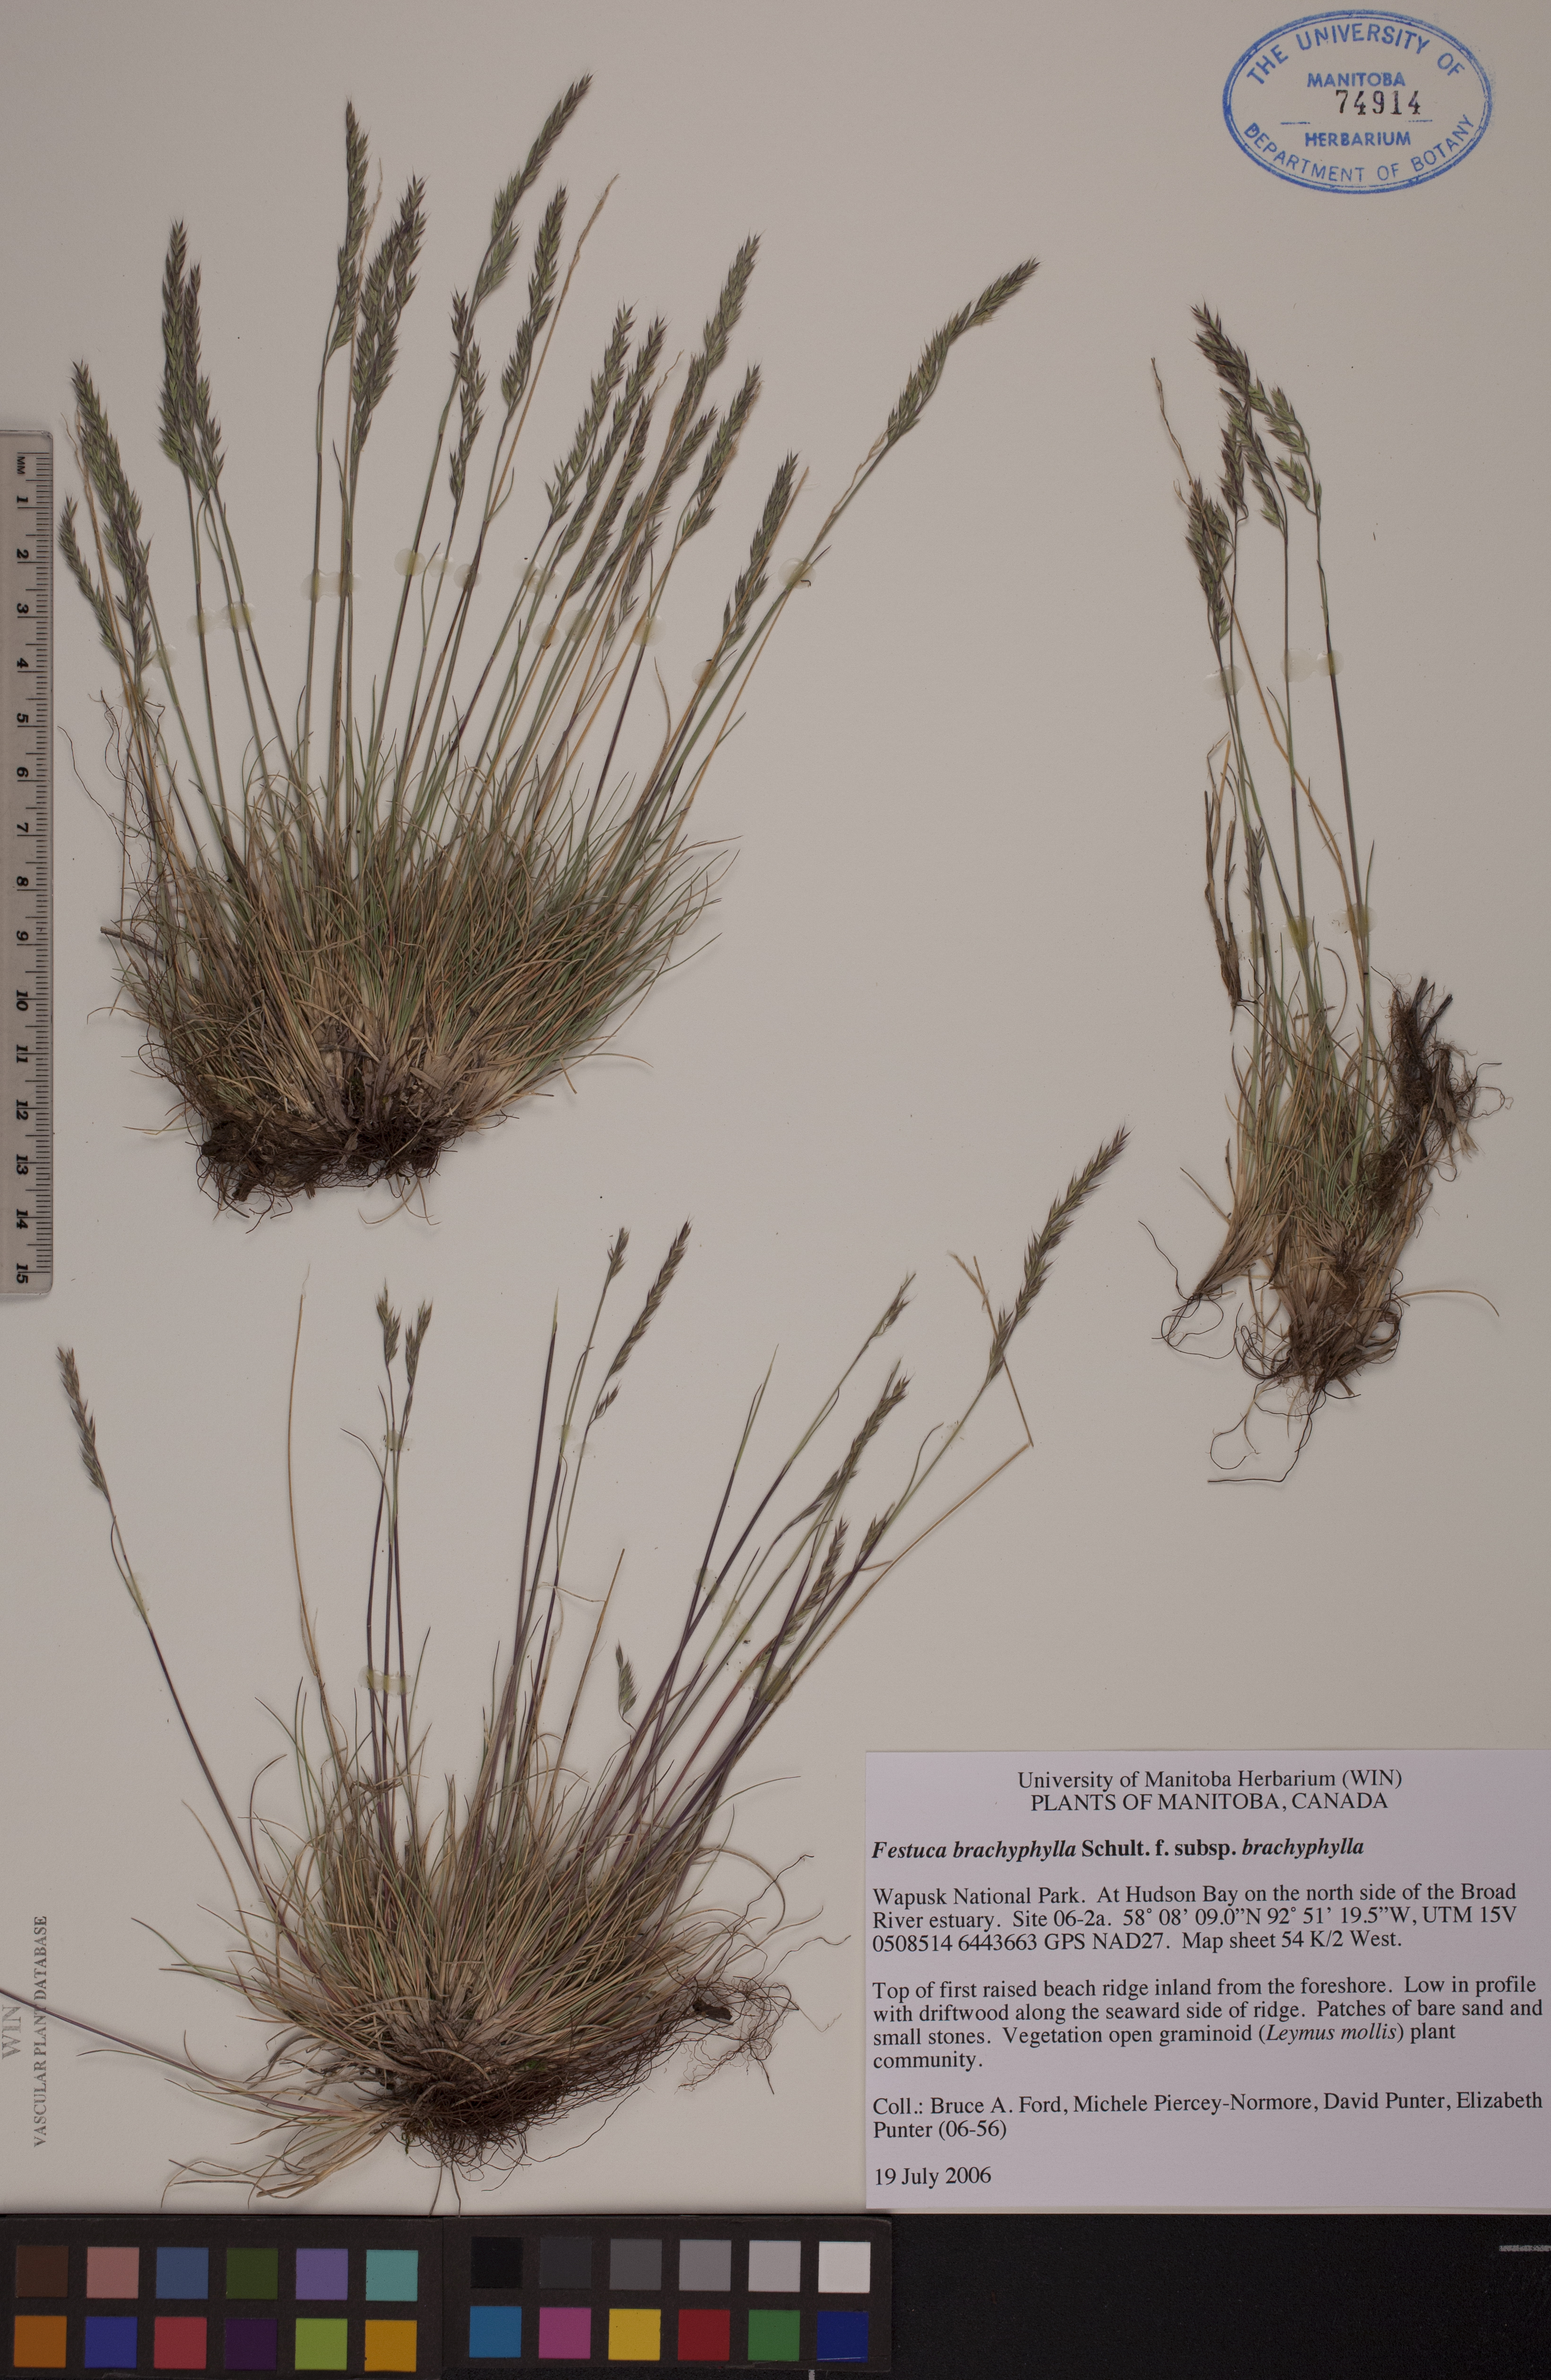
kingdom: Plantae
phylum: Tracheophyta
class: Liliopsida
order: Poales
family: Poaceae
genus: Festuca
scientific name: Festuca brachyphylla
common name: Alpine fescue
